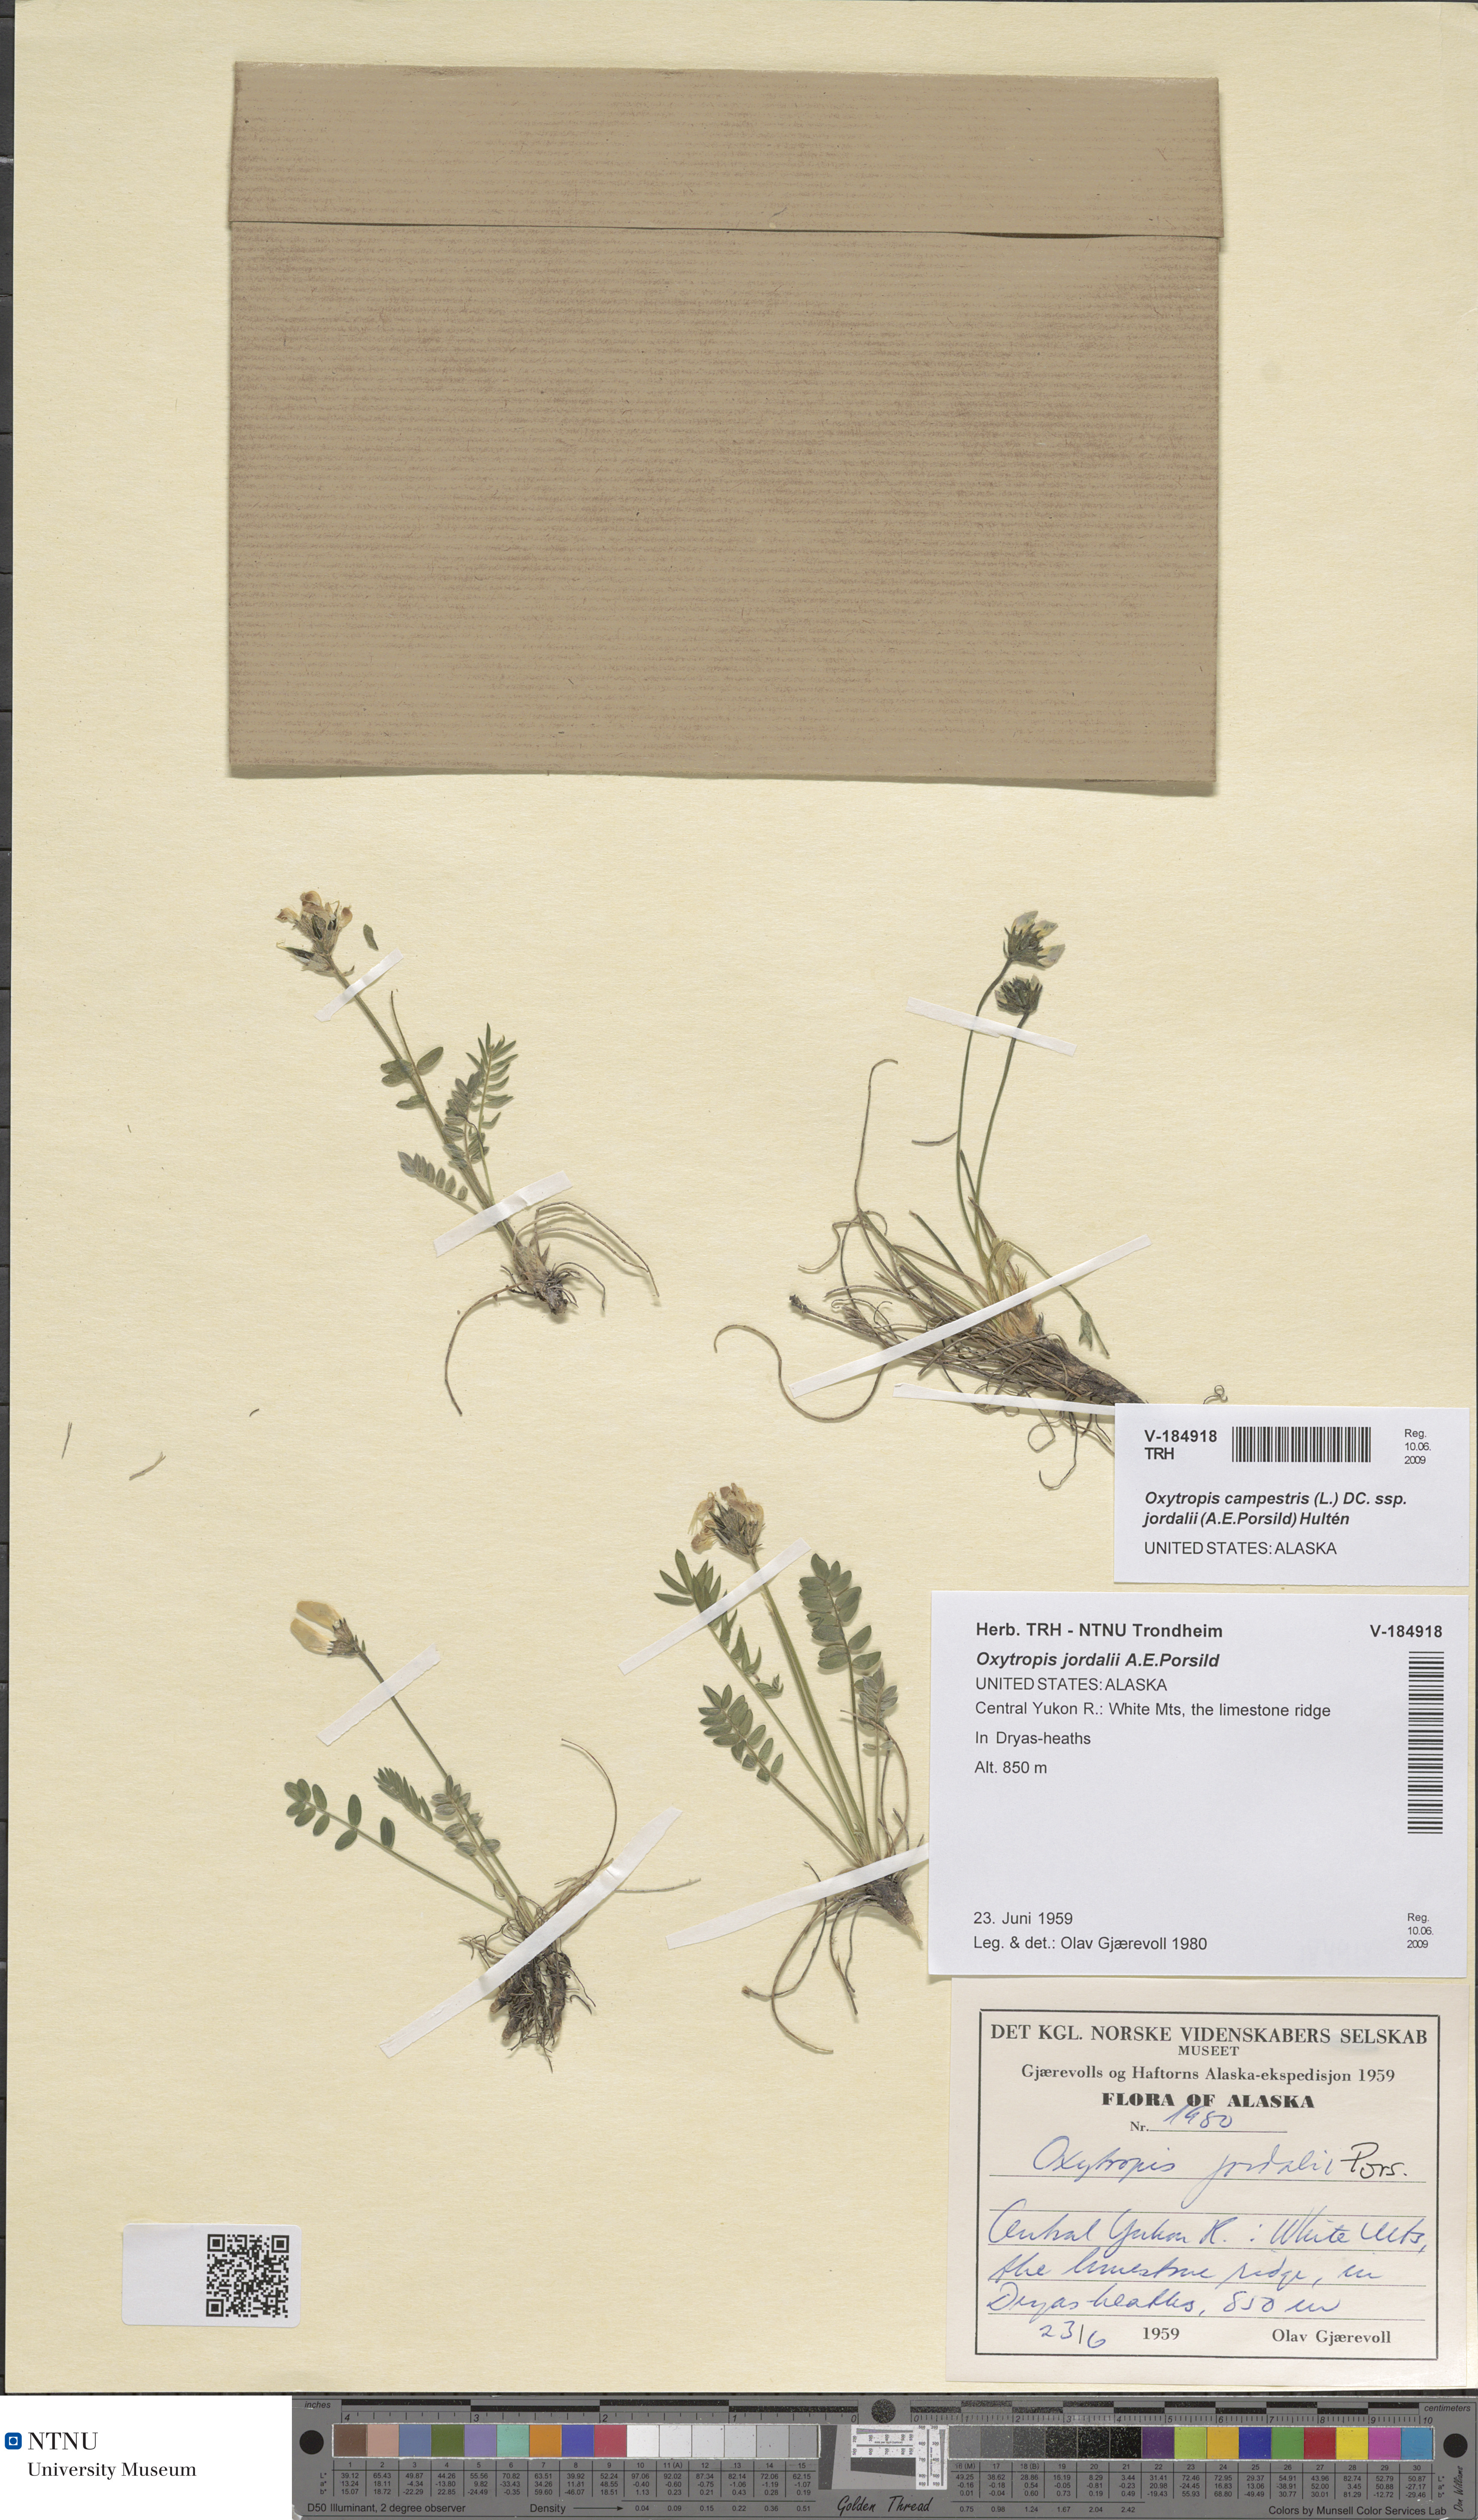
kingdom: Plantae
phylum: Tracheophyta
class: Magnoliopsida
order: Fabales
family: Fabaceae
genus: Oxytropis
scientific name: Oxytropis jordalii
